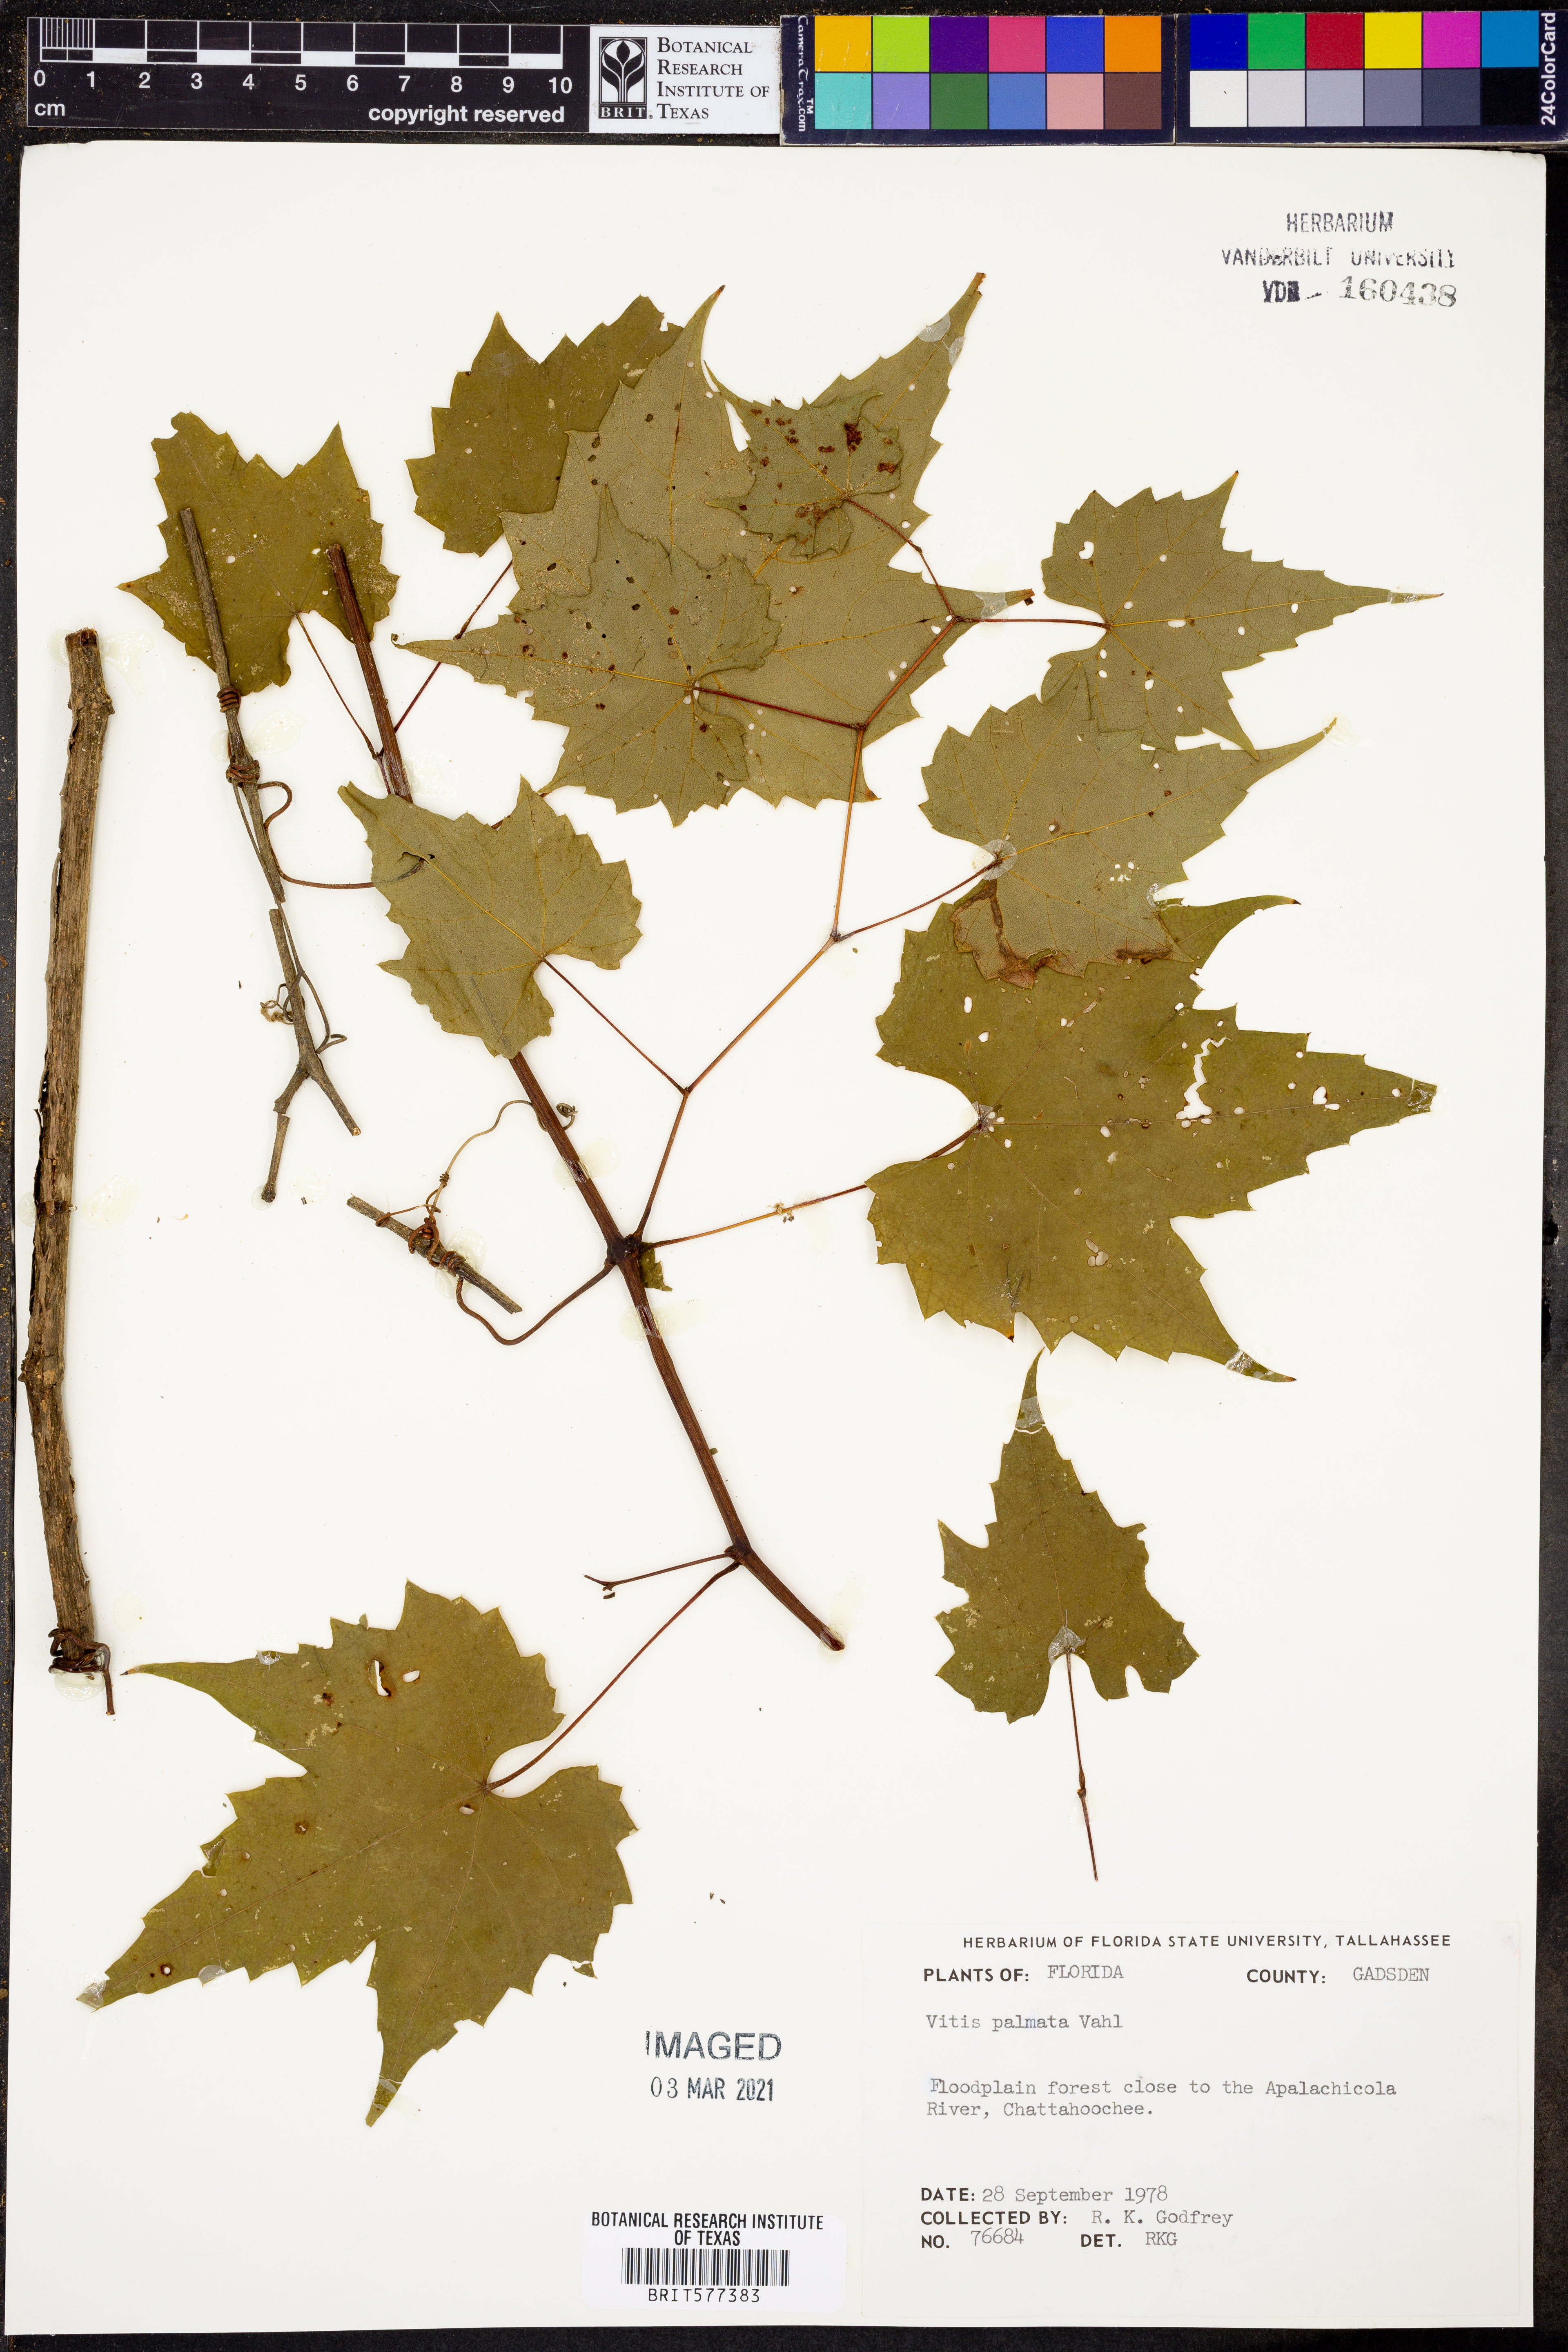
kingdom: Plantae
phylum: Tracheophyta
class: Magnoliopsida
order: Vitales
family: Vitaceae
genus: Vitis
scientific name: Vitis palmata
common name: Catbird grape
